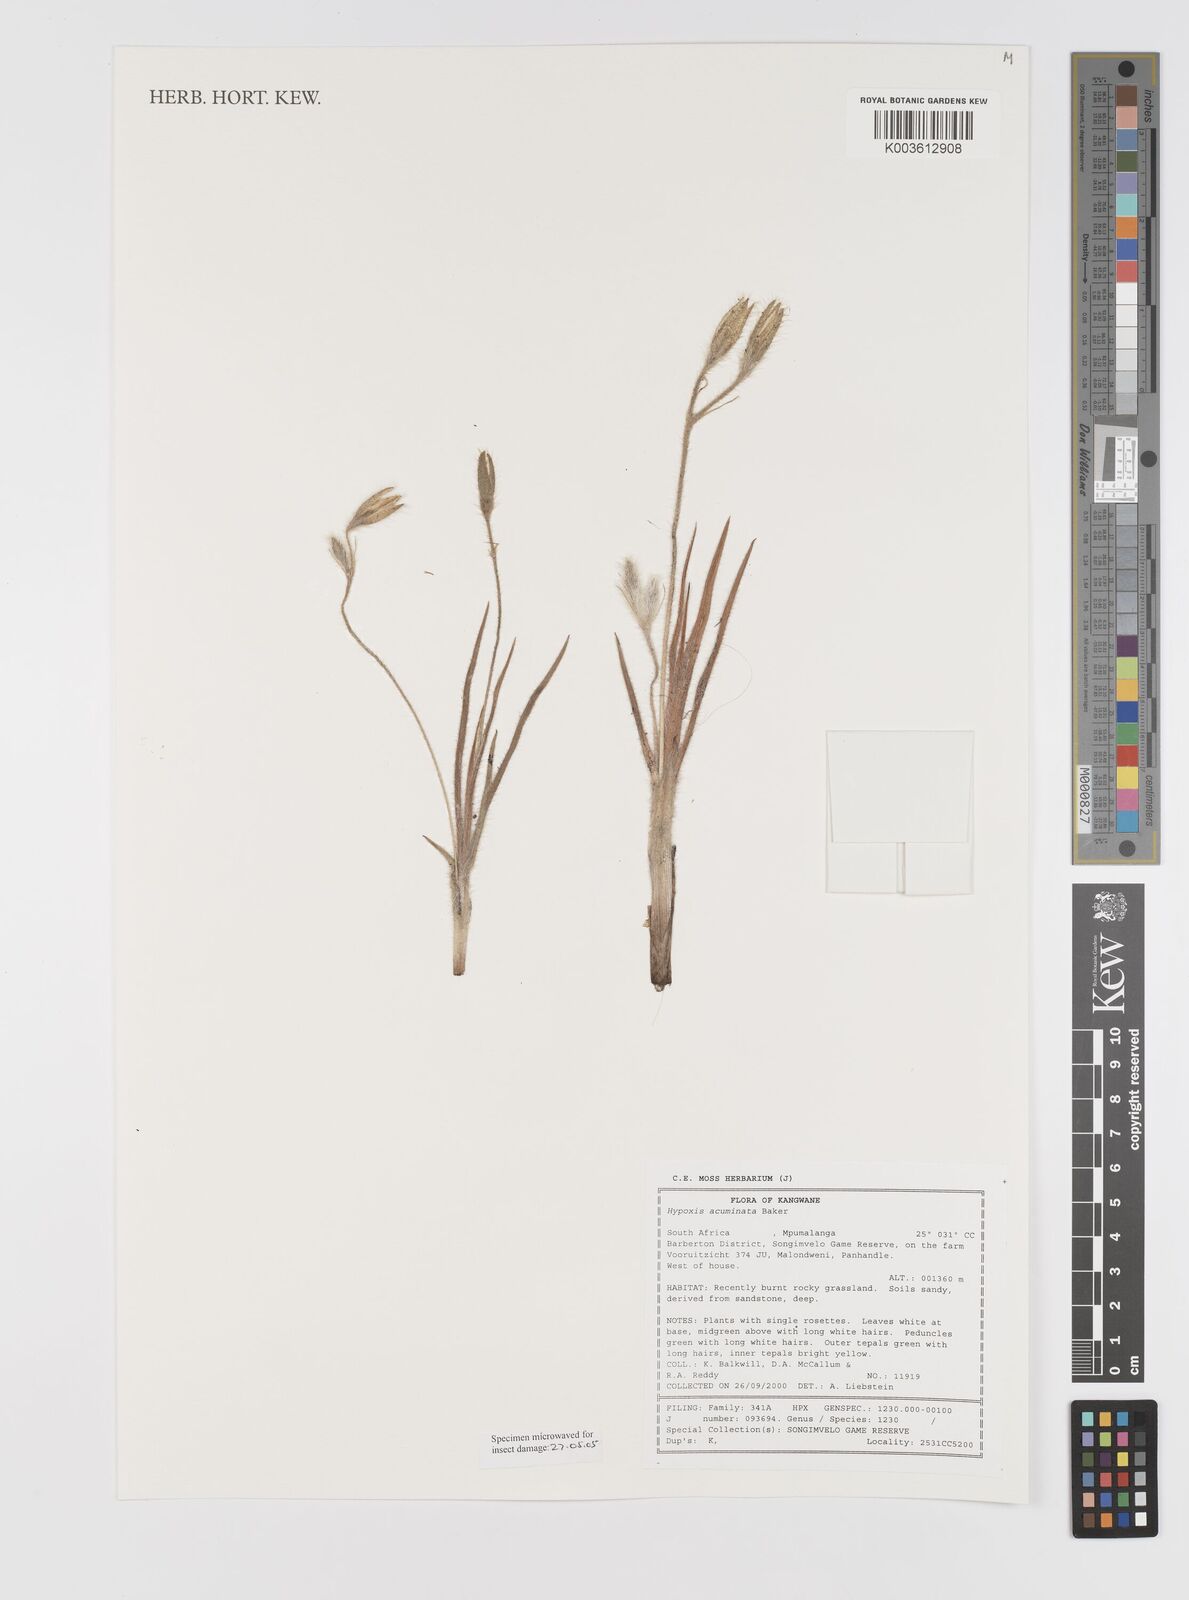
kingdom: Plantae
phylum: Tracheophyta
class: Liliopsida
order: Asparagales
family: Hypoxidaceae
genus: Hypoxis
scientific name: Hypoxis acuminata
